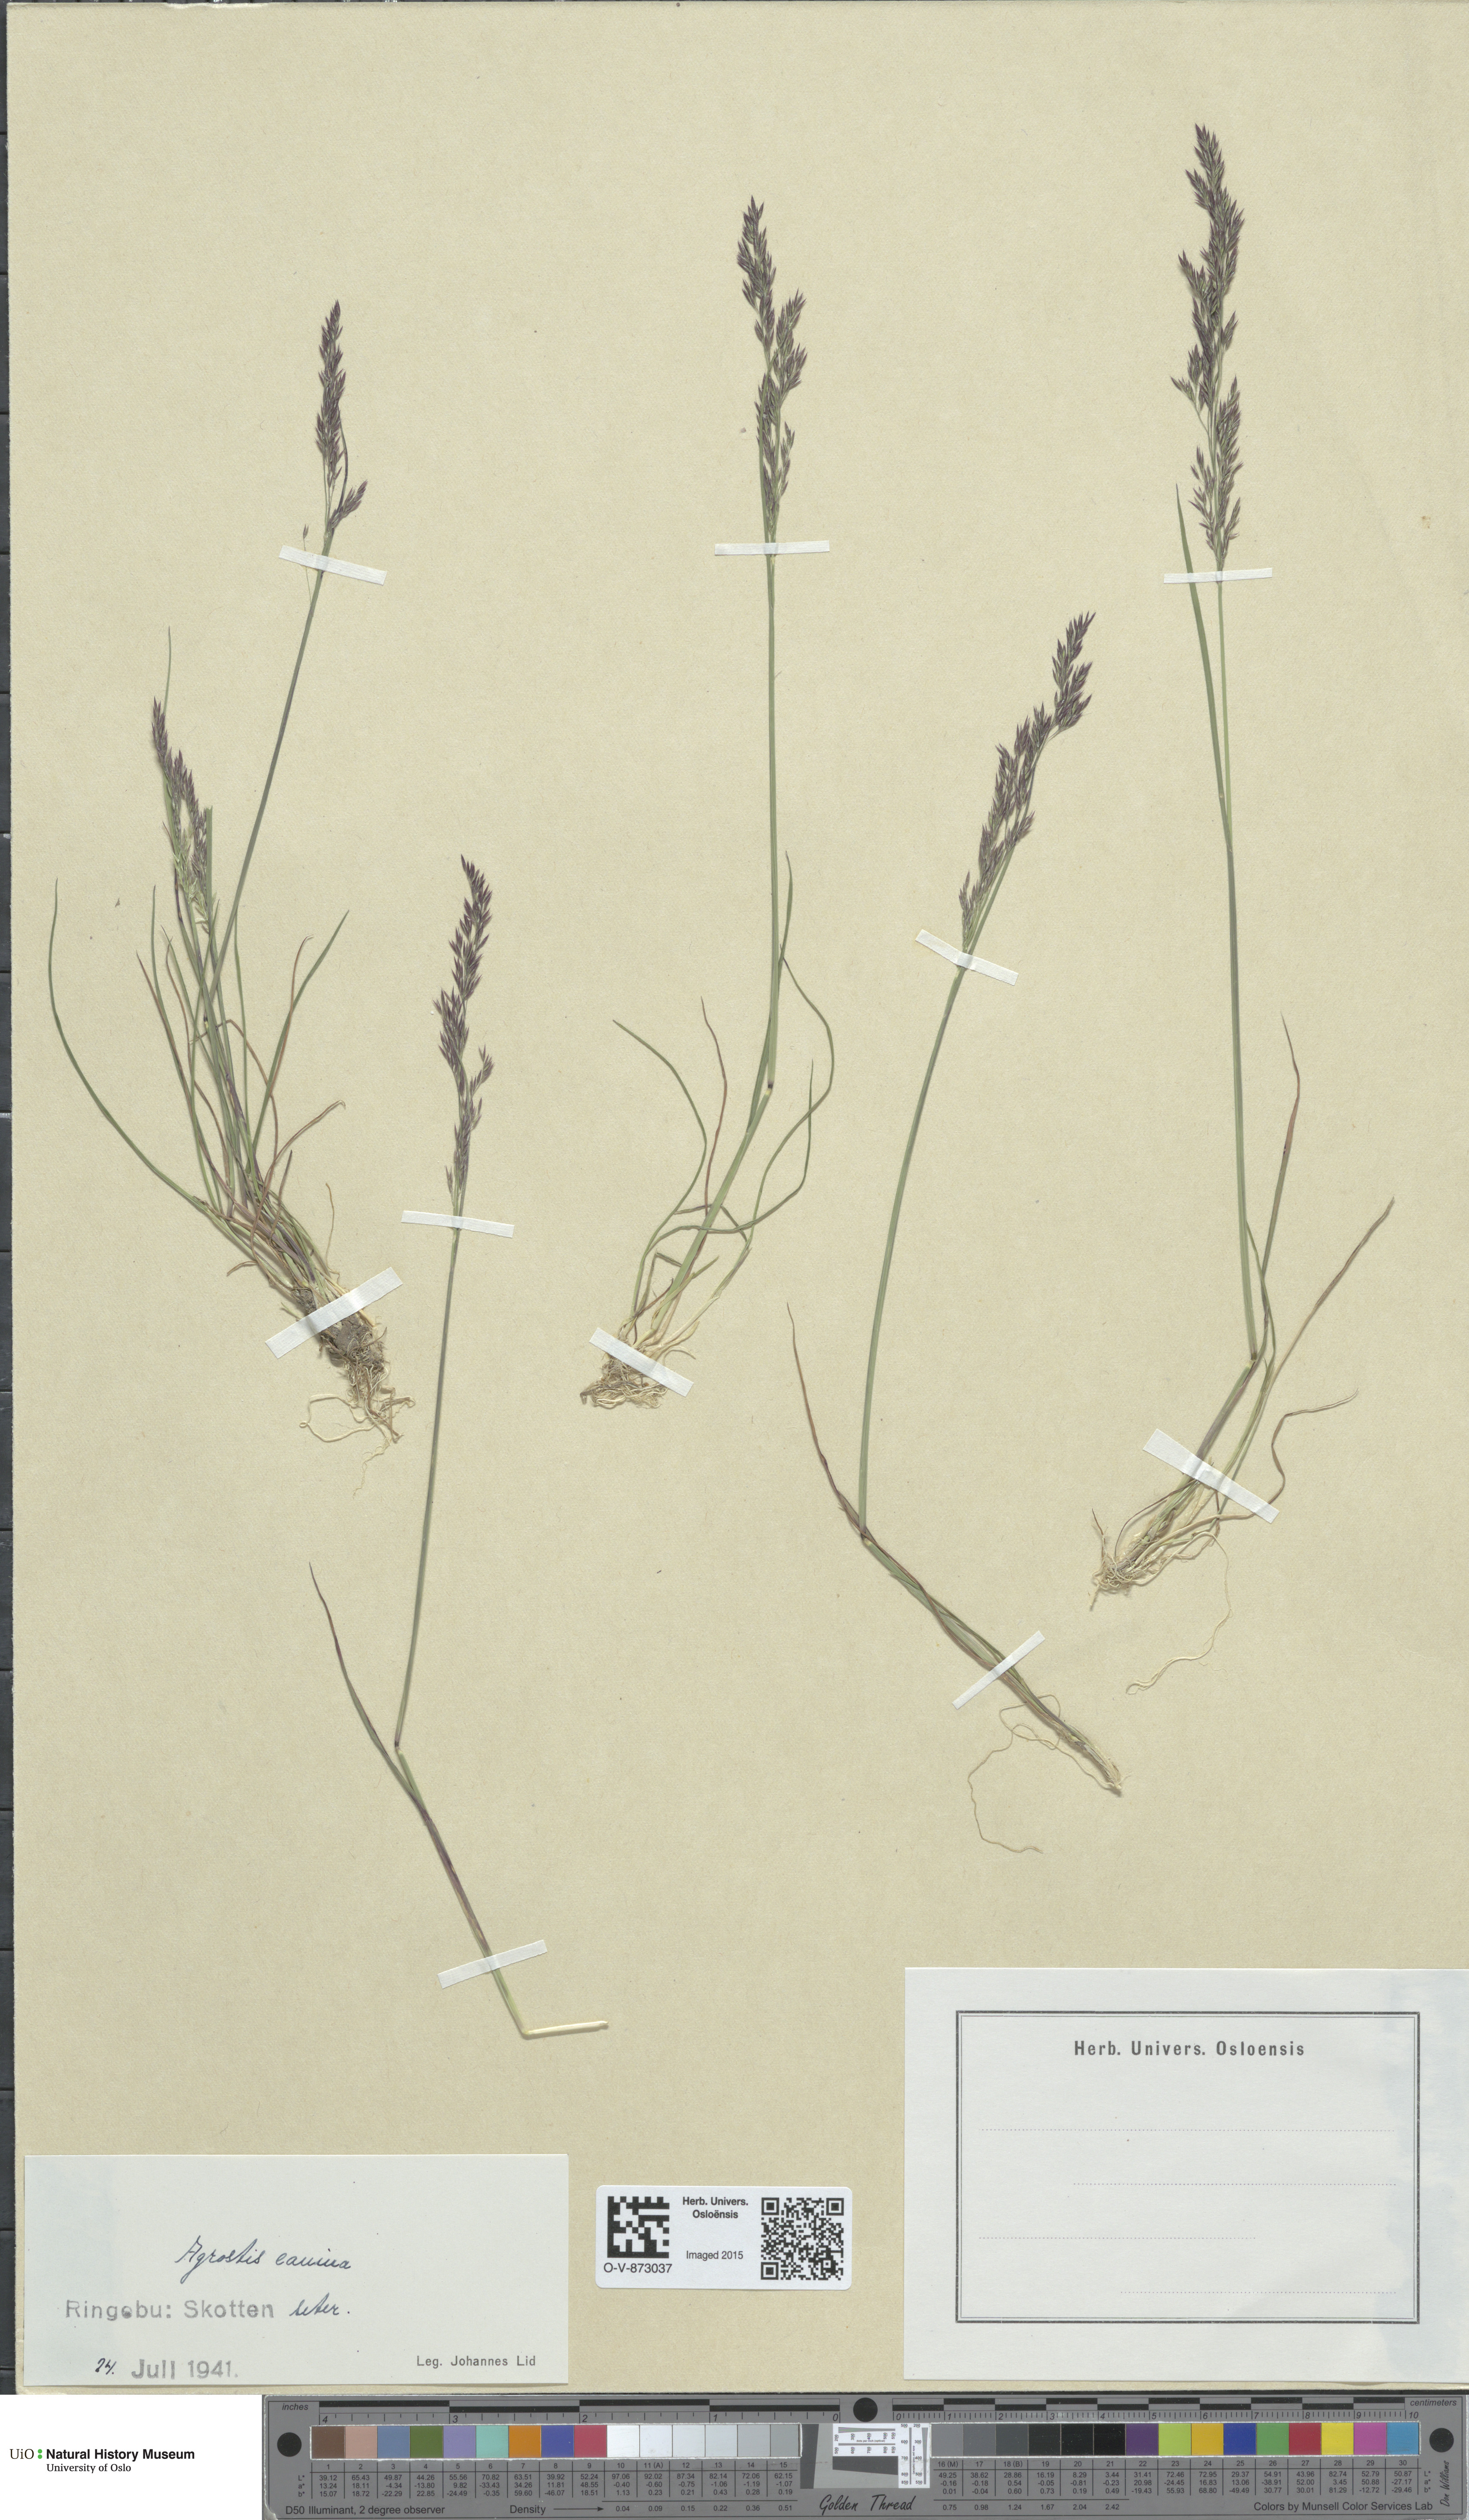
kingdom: Plantae
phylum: Tracheophyta
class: Liliopsida
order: Poales
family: Poaceae
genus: Agrostis
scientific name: Agrostis canina
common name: Velvet bent
